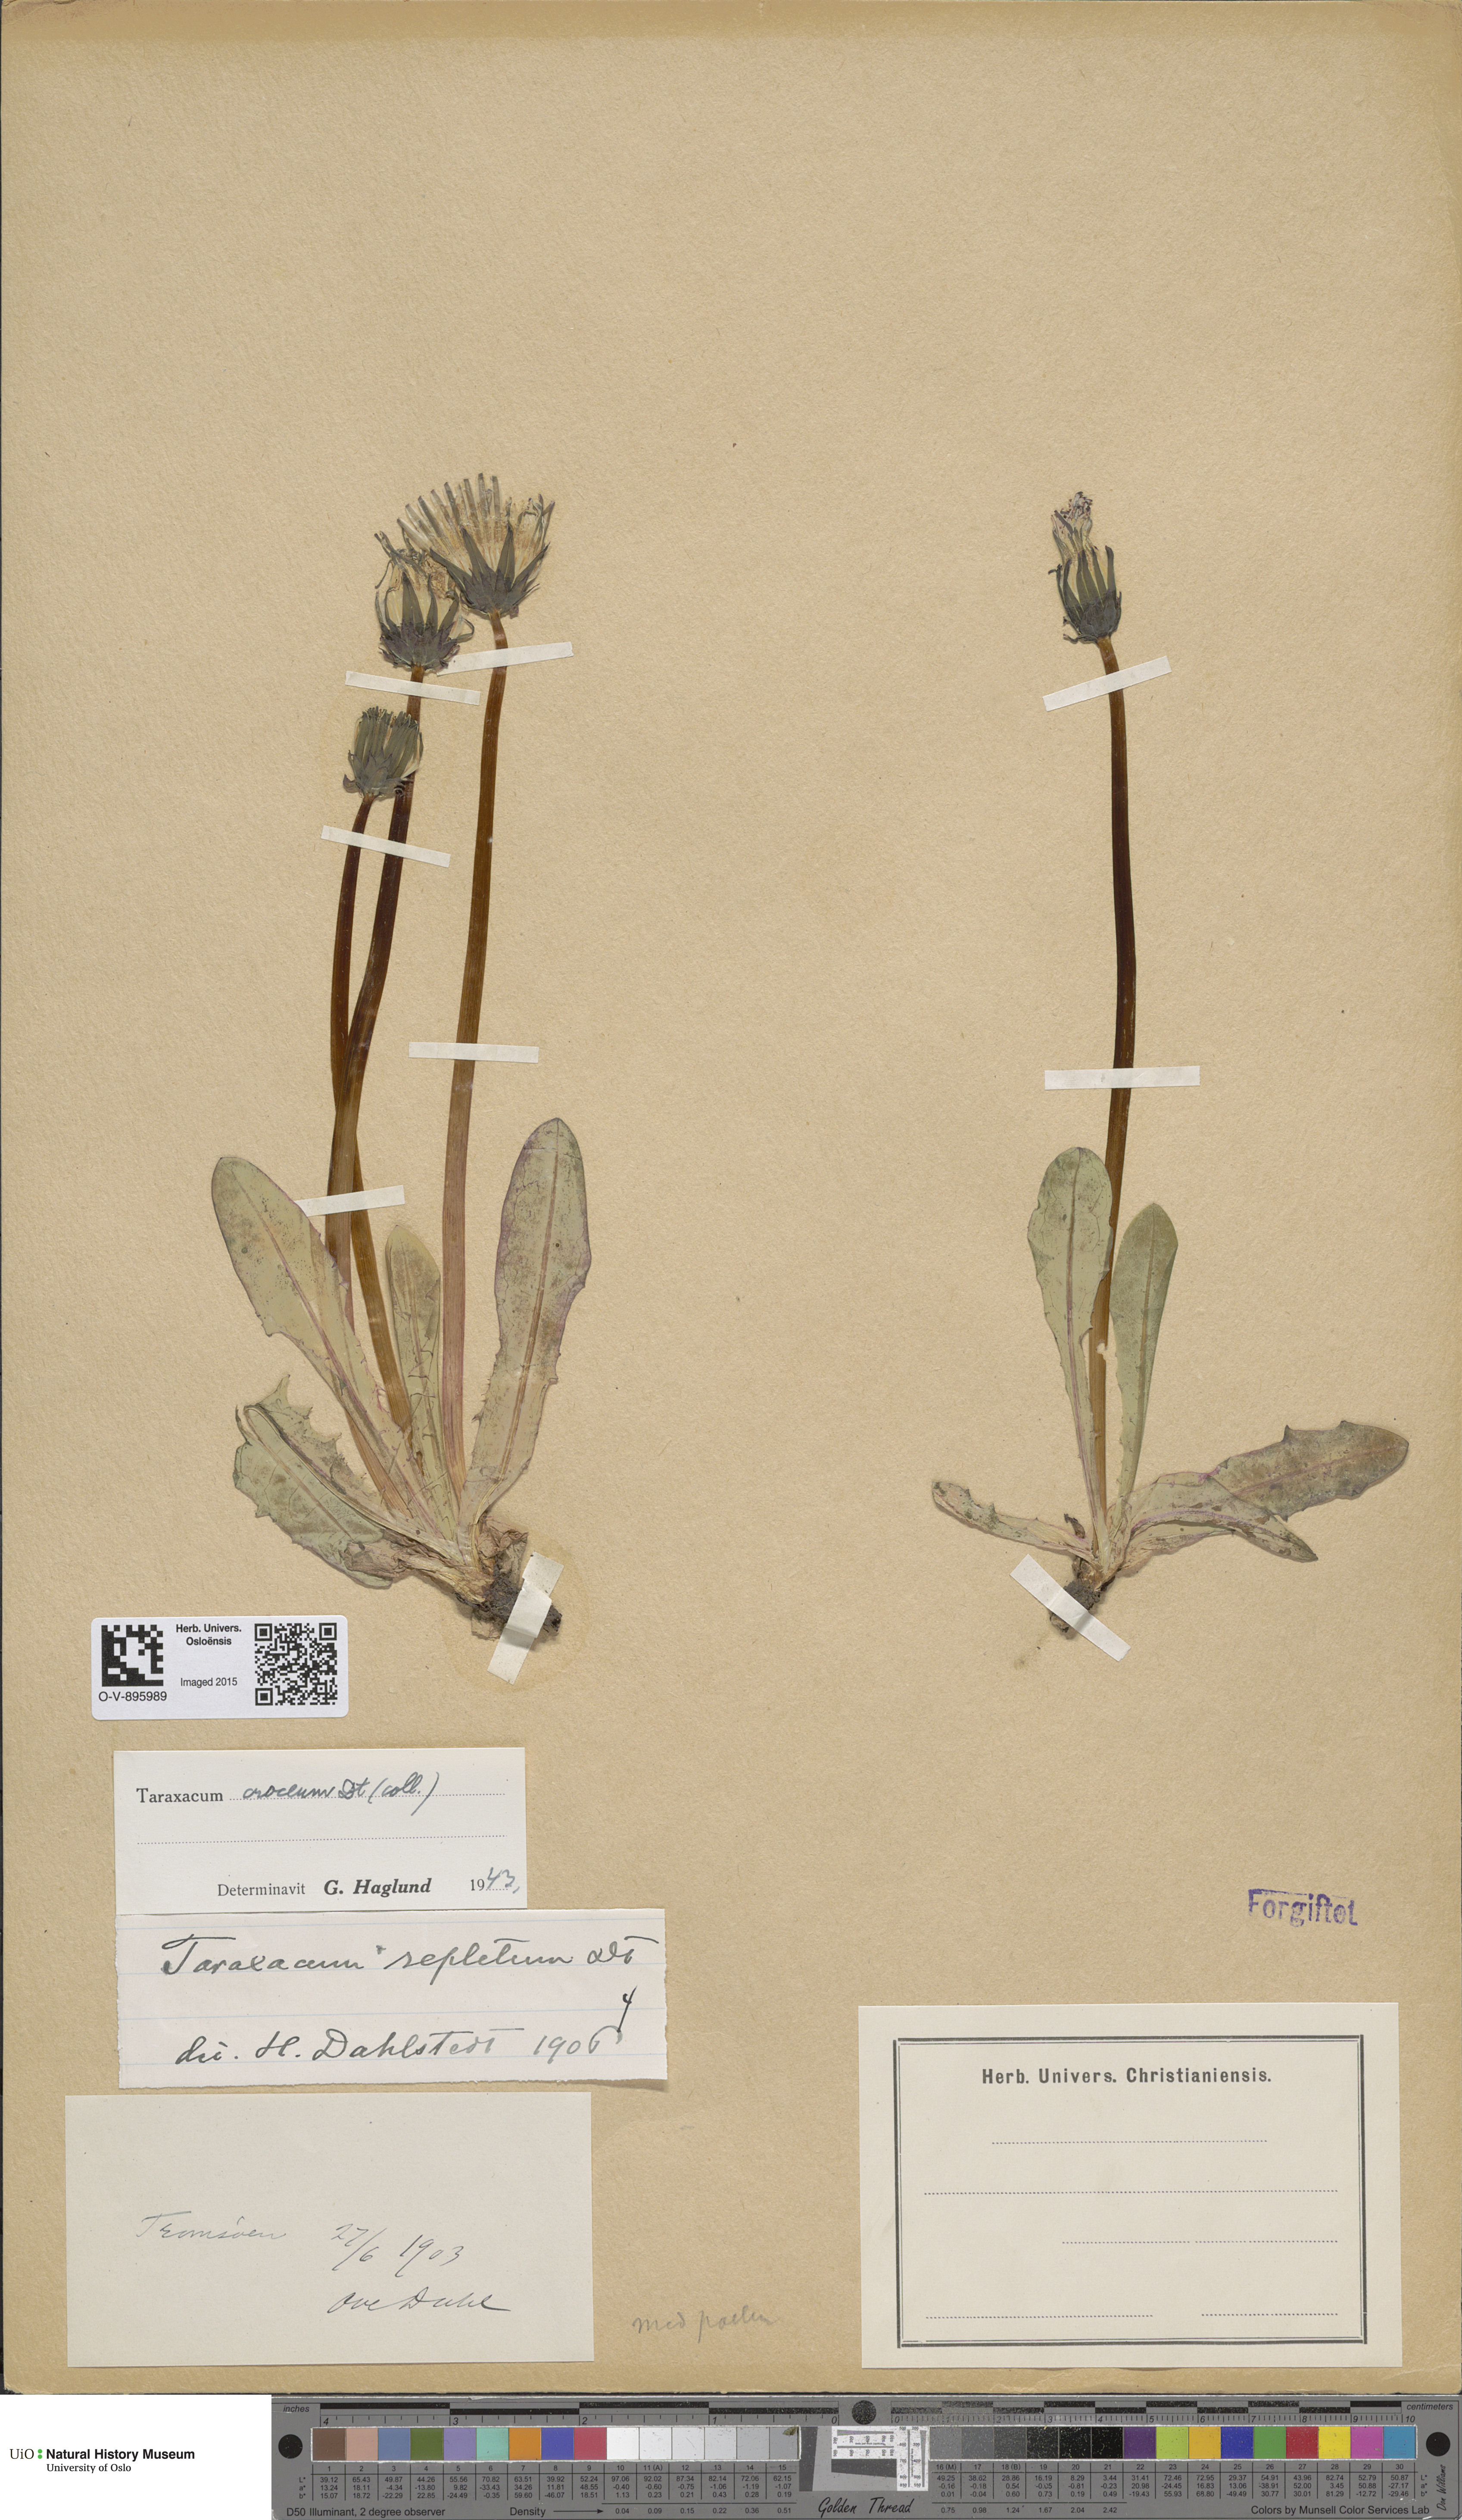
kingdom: Plantae
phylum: Tracheophyta
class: Magnoliopsida
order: Asterales
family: Asteraceae
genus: Taraxacum
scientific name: Taraxacum croceum
